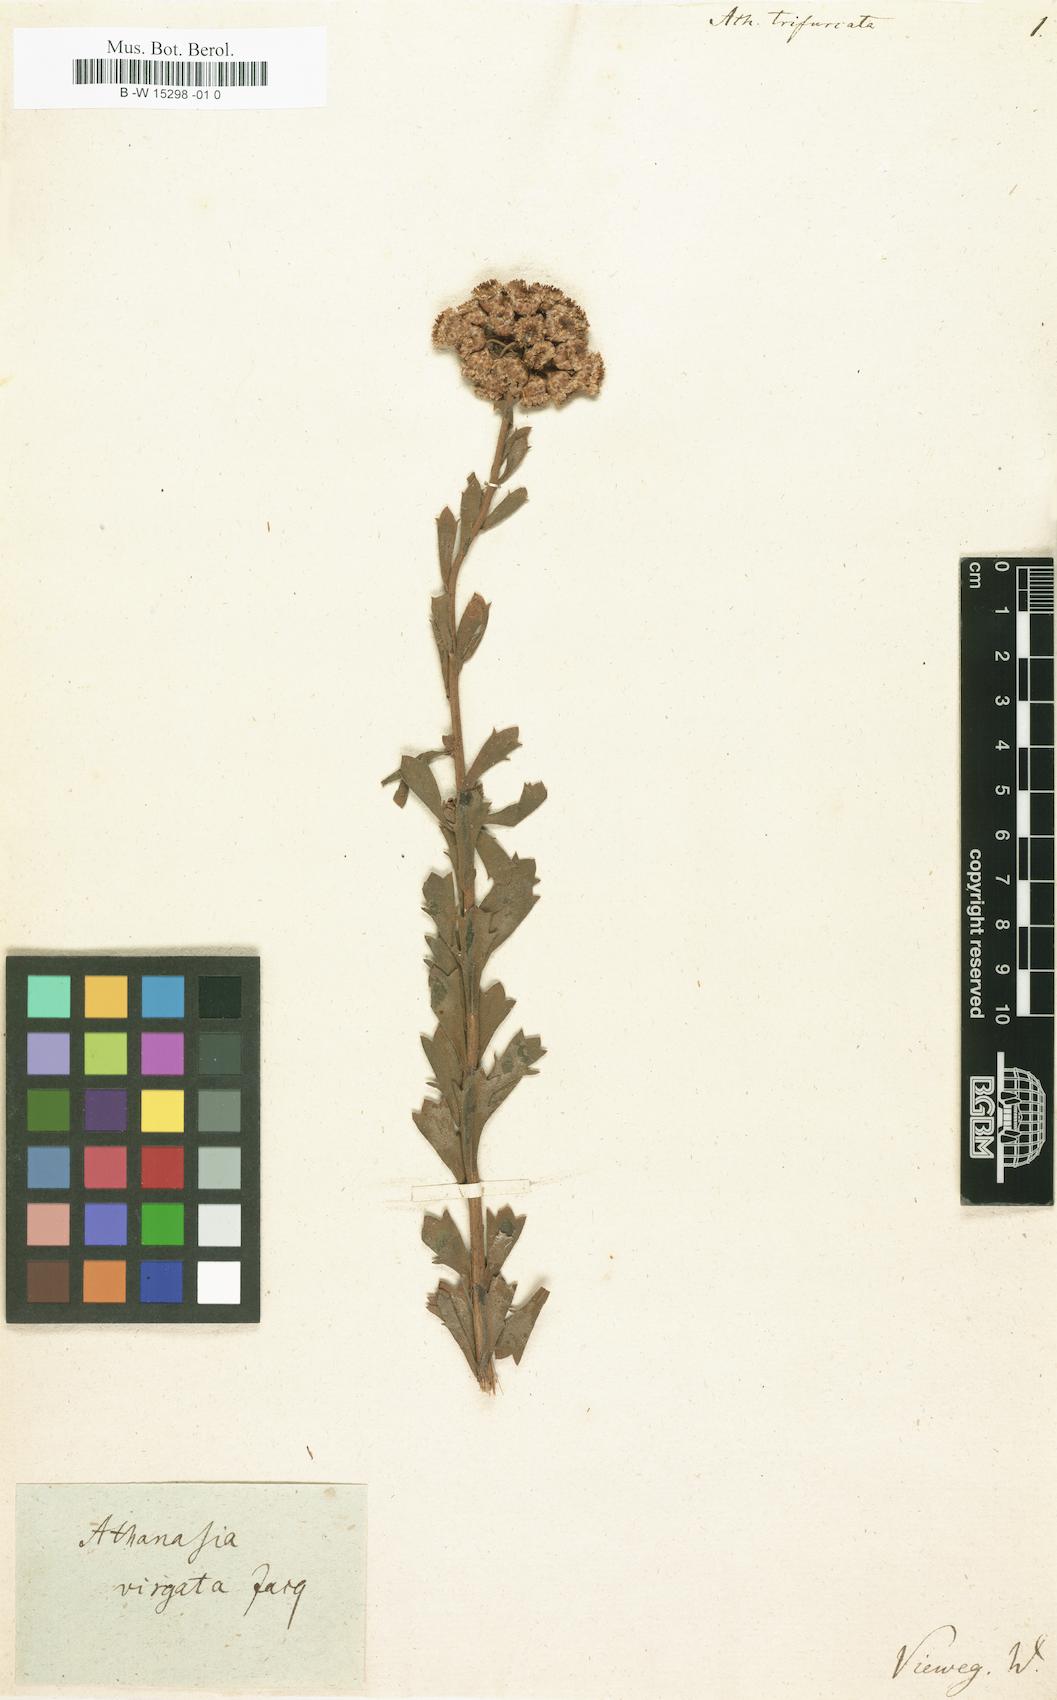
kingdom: Plantae
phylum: Tracheophyta
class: Magnoliopsida
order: Asterales
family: Asteraceae
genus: Athanasia
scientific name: Athanasia trifurcata
